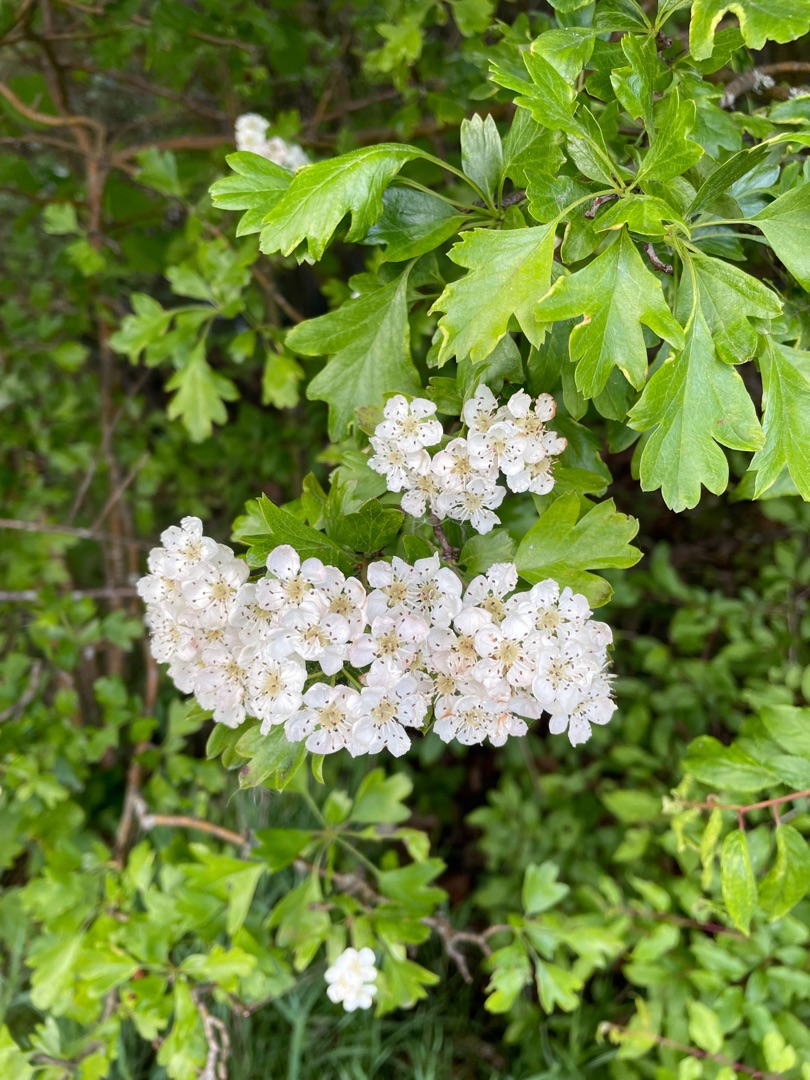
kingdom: Plantae
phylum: Tracheophyta
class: Magnoliopsida
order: Rosales
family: Rosaceae
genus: Crataegus
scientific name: Crataegus monogyna
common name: Engriflet hvidtjørn
